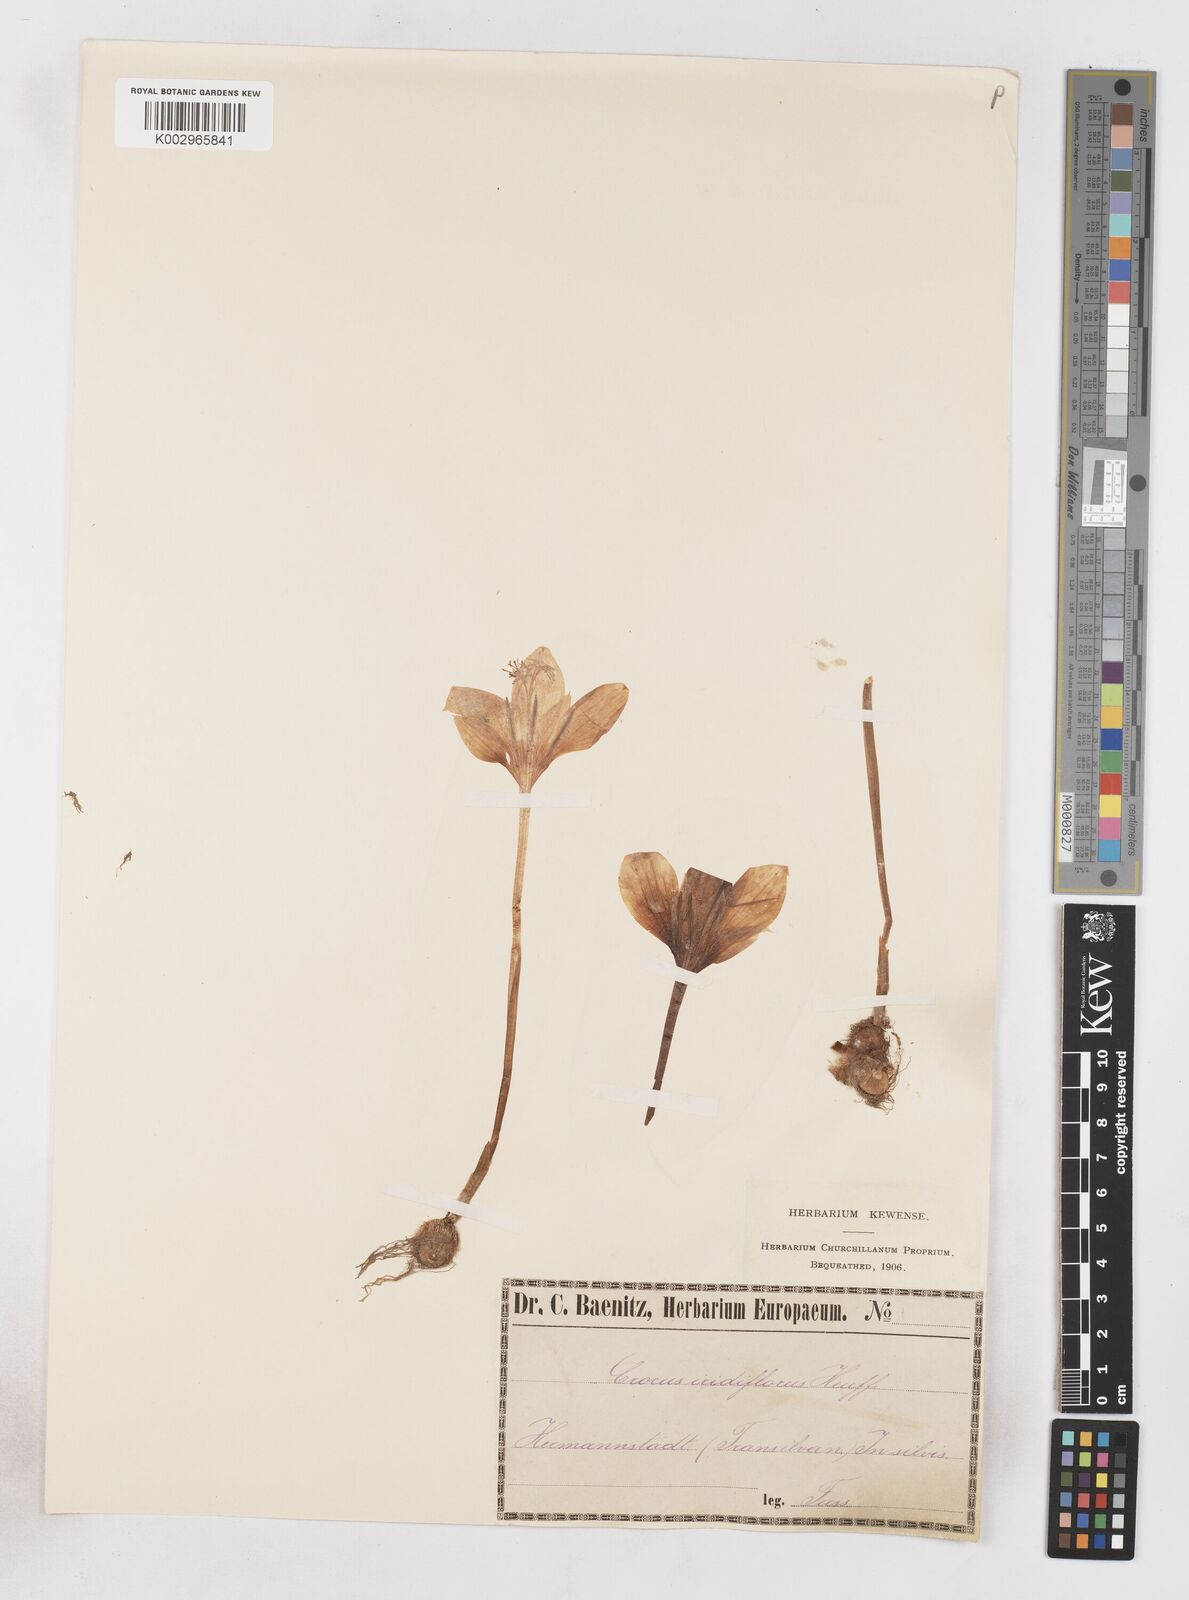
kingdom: Plantae
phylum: Tracheophyta
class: Liliopsida
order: Asparagales
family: Iridaceae
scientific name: Iridaceae
